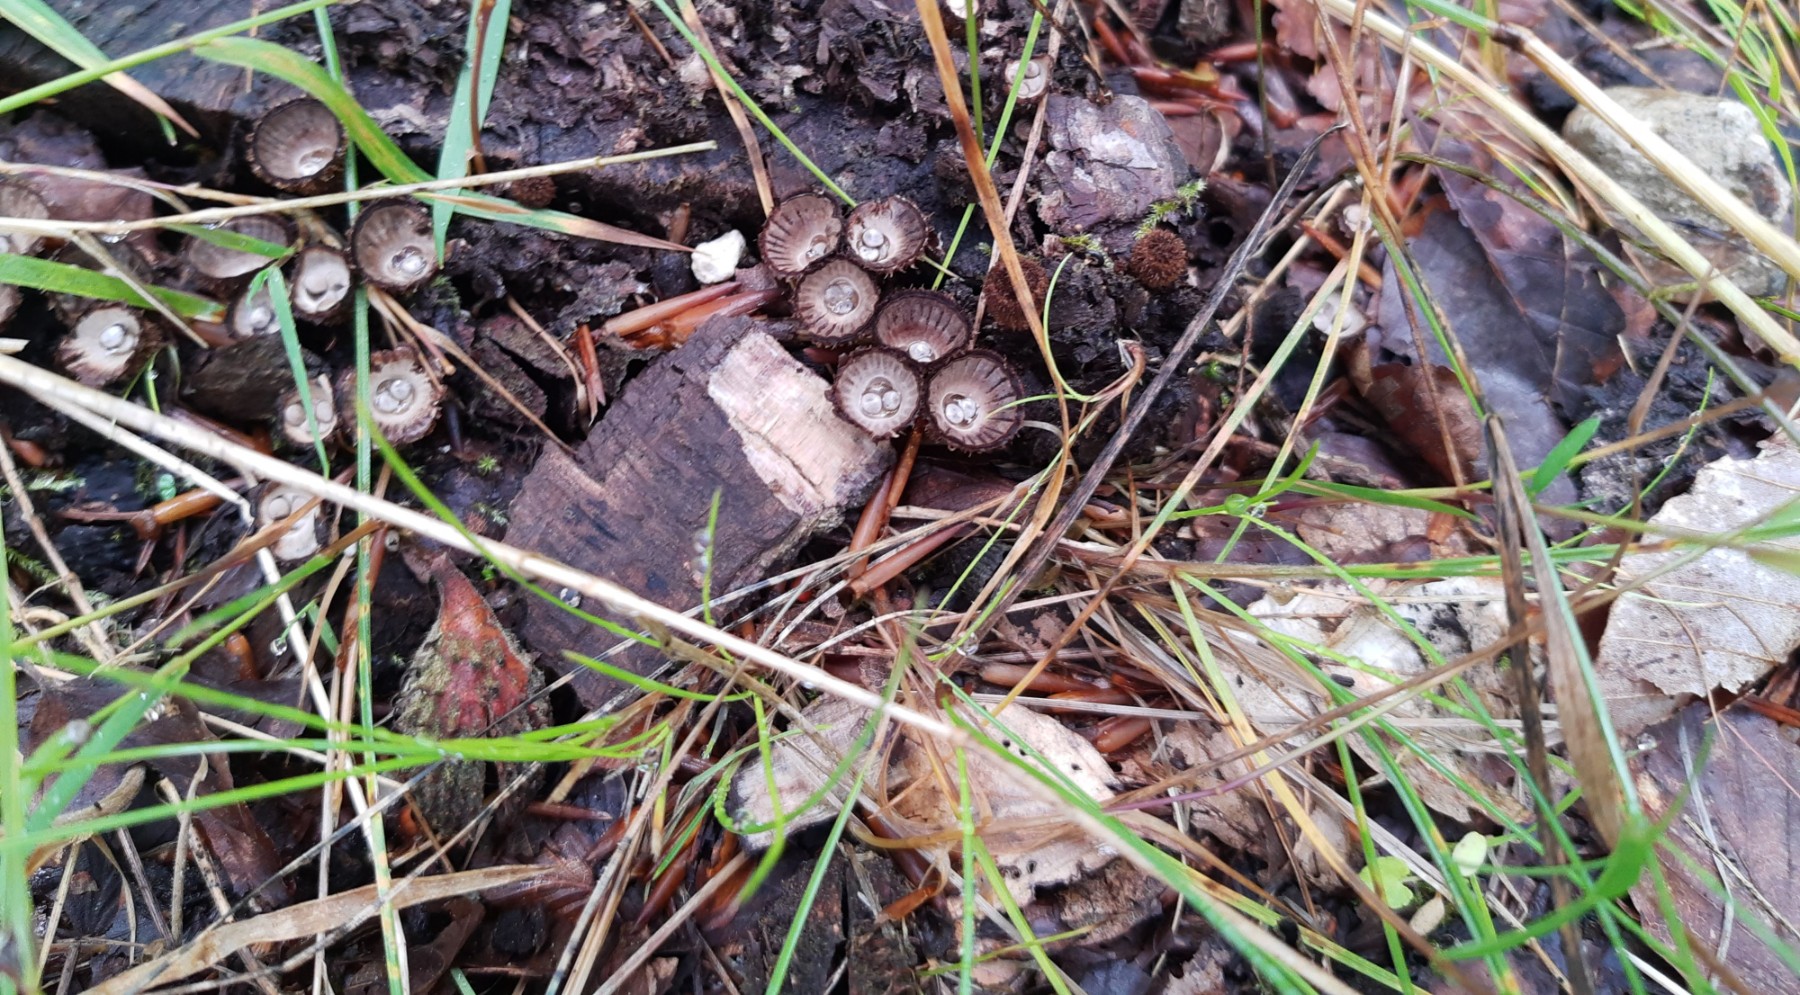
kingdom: Fungi
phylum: Basidiomycota
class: Agaricomycetes
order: Agaricales
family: Agaricaceae
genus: Cyathus
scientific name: Cyathus striatus
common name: stribet redesvamp
